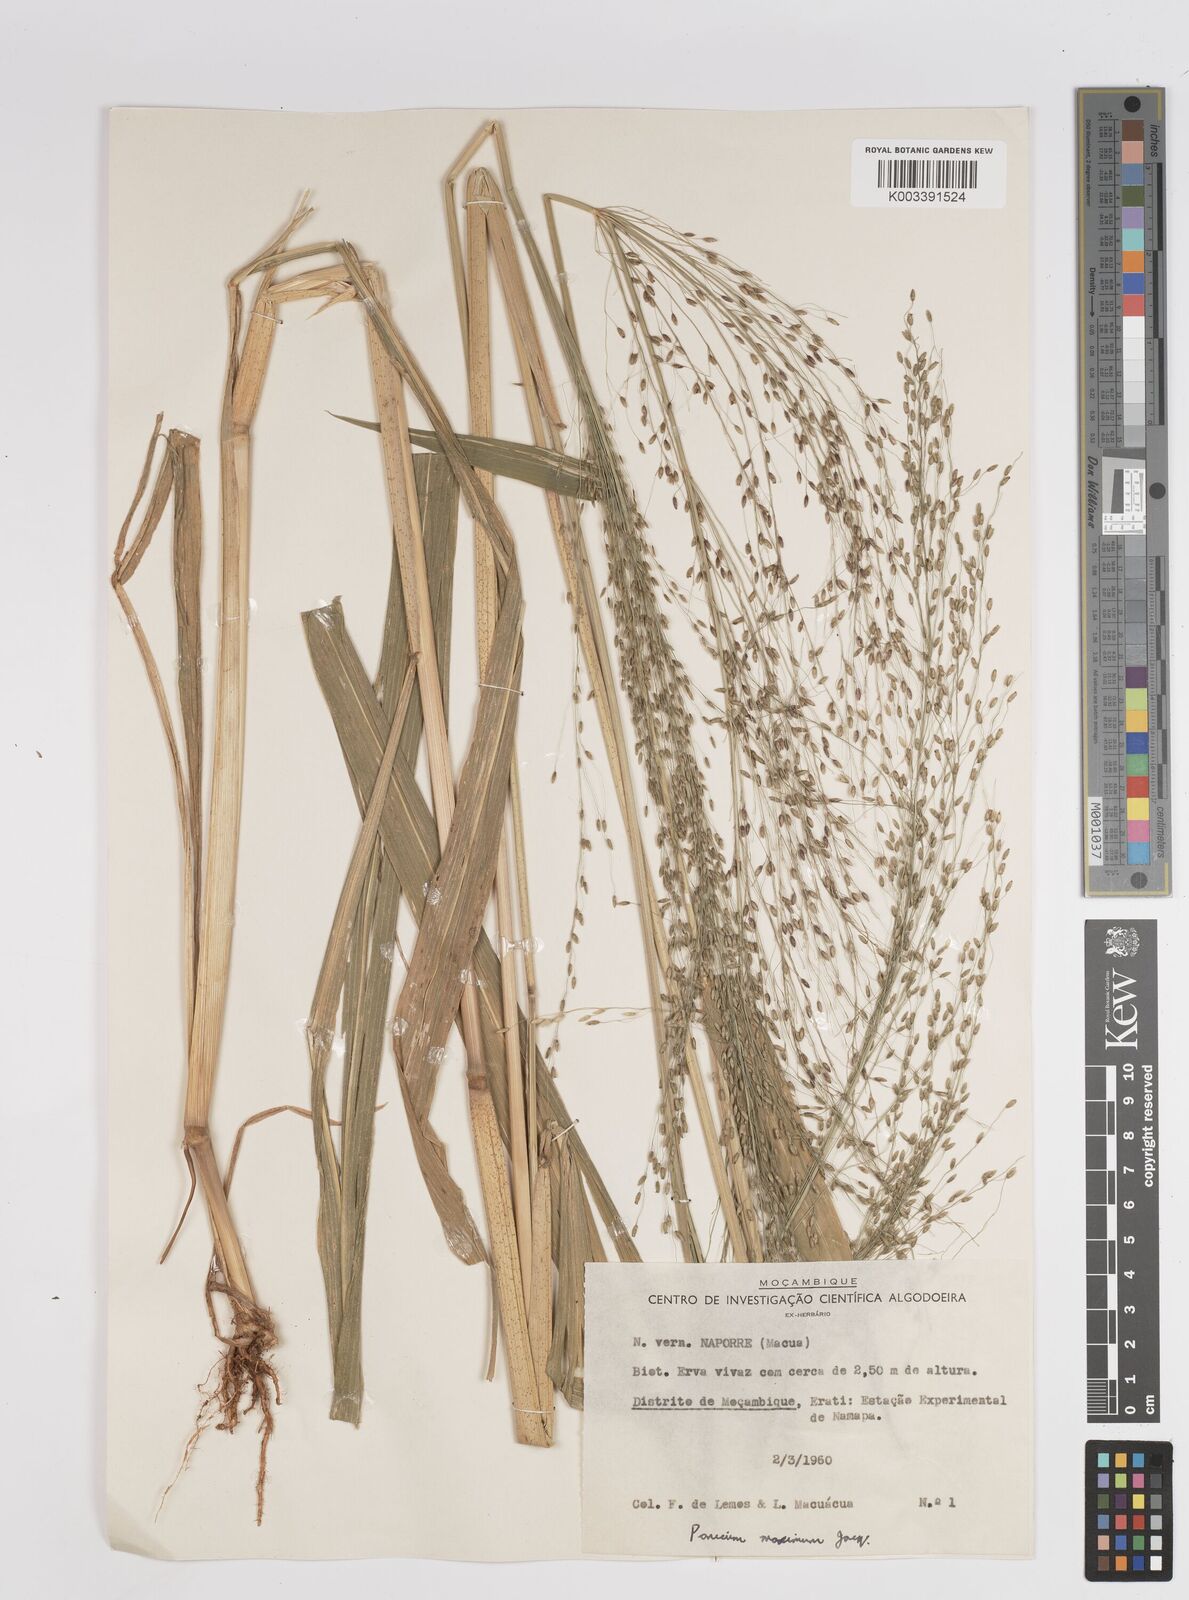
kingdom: Plantae
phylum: Tracheophyta
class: Liliopsida
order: Poales
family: Poaceae
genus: Megathyrsus
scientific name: Megathyrsus maximus
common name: Guineagrass
